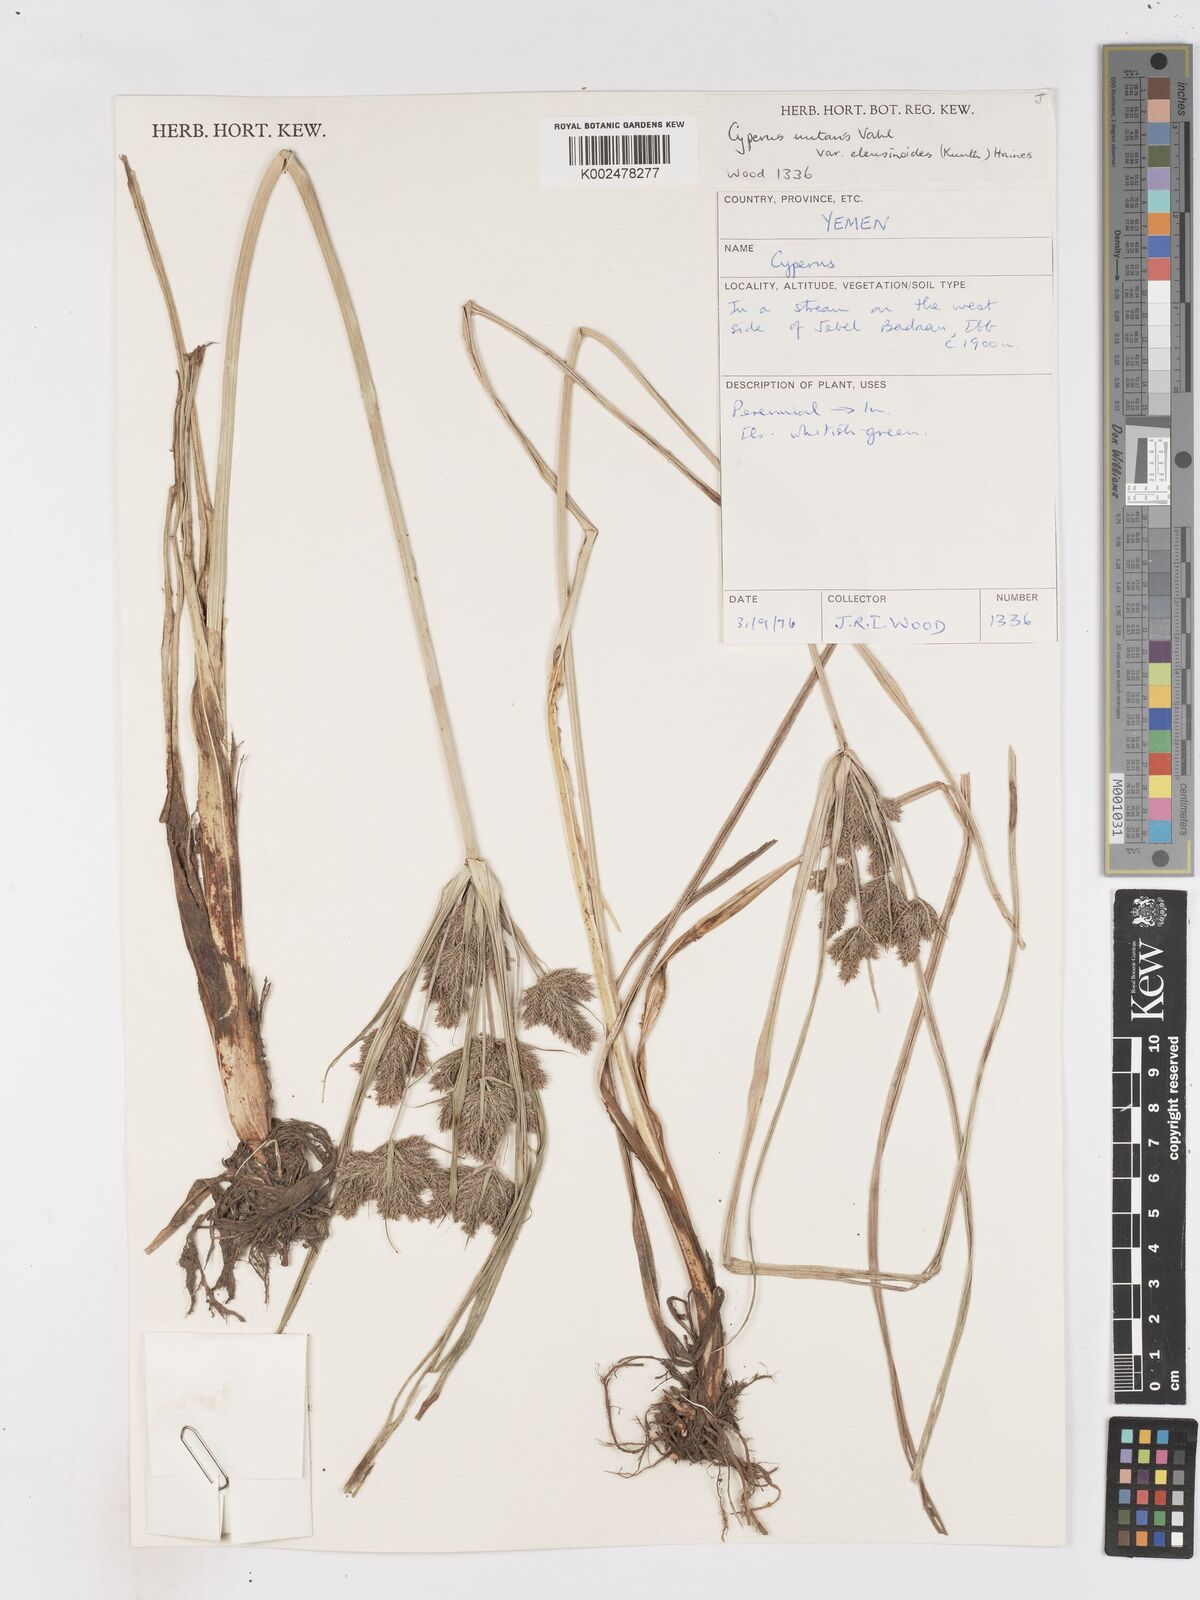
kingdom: Plantae
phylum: Tracheophyta
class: Liliopsida
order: Poales
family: Cyperaceae
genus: Cyperus
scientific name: Cyperus nutans
